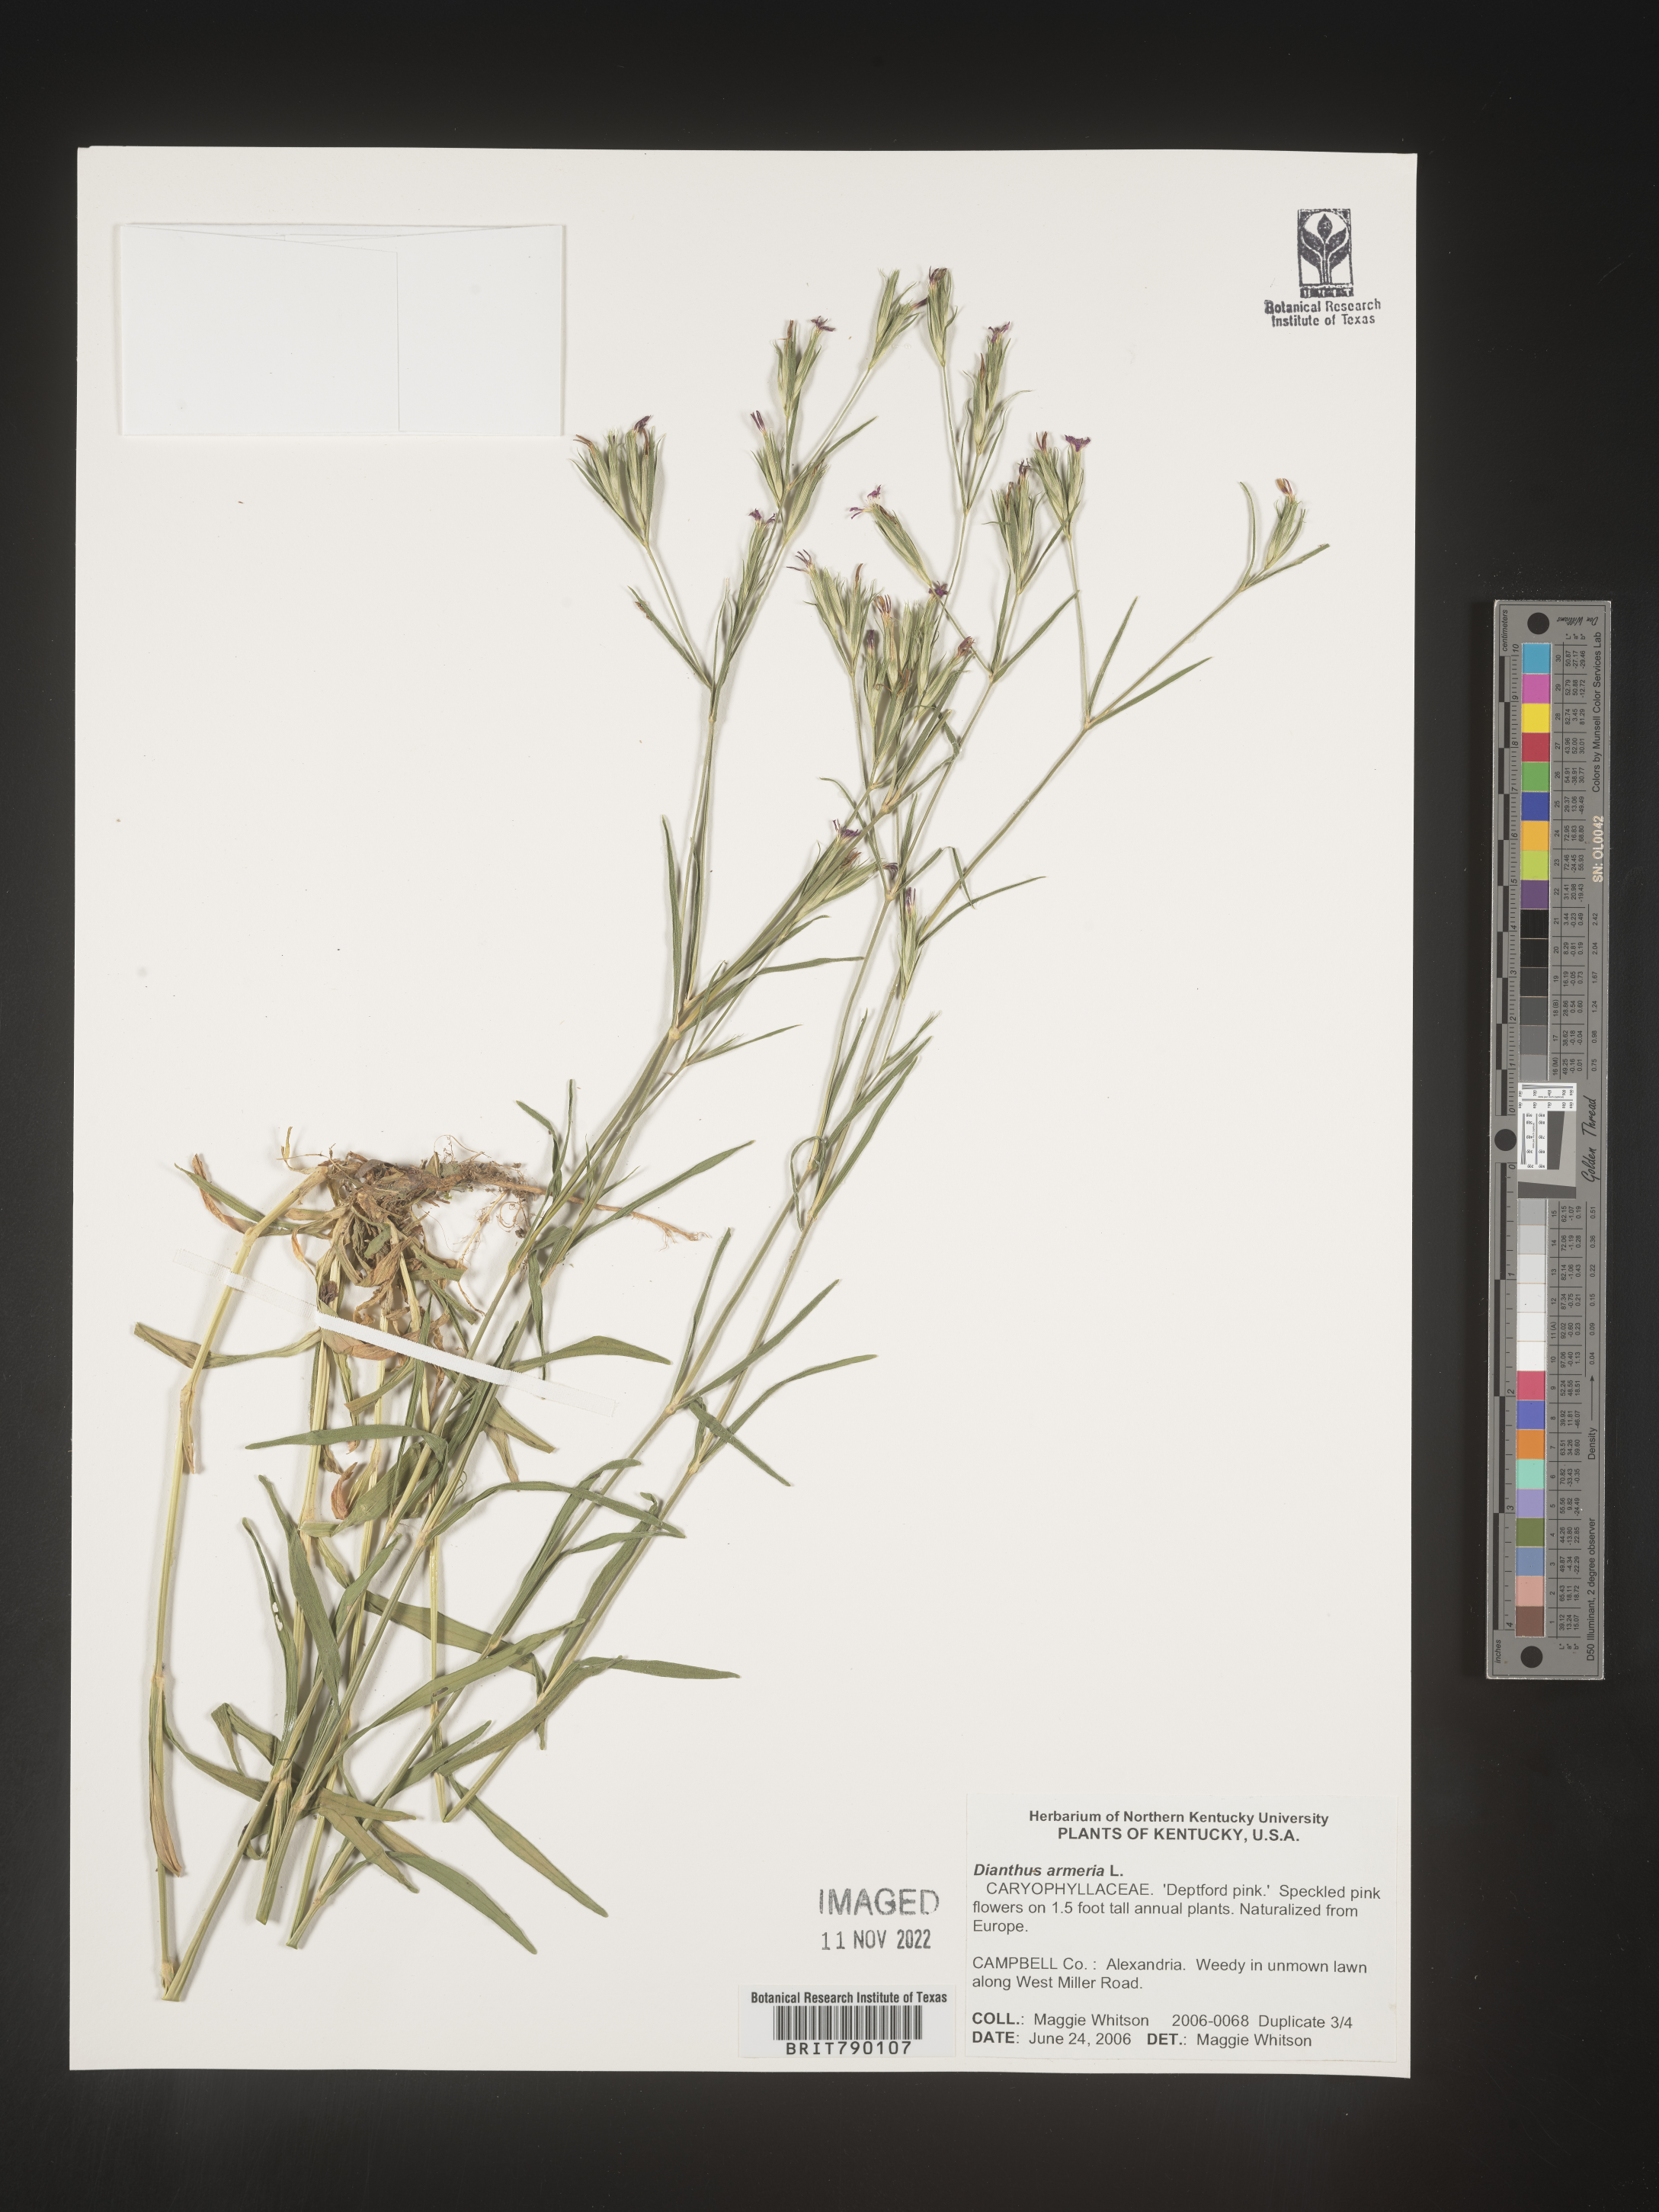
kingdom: Plantae
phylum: Tracheophyta
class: Magnoliopsida
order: Caryophyllales
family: Caryophyllaceae
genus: Dianthus
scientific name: Dianthus armeria
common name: Deptford pink
